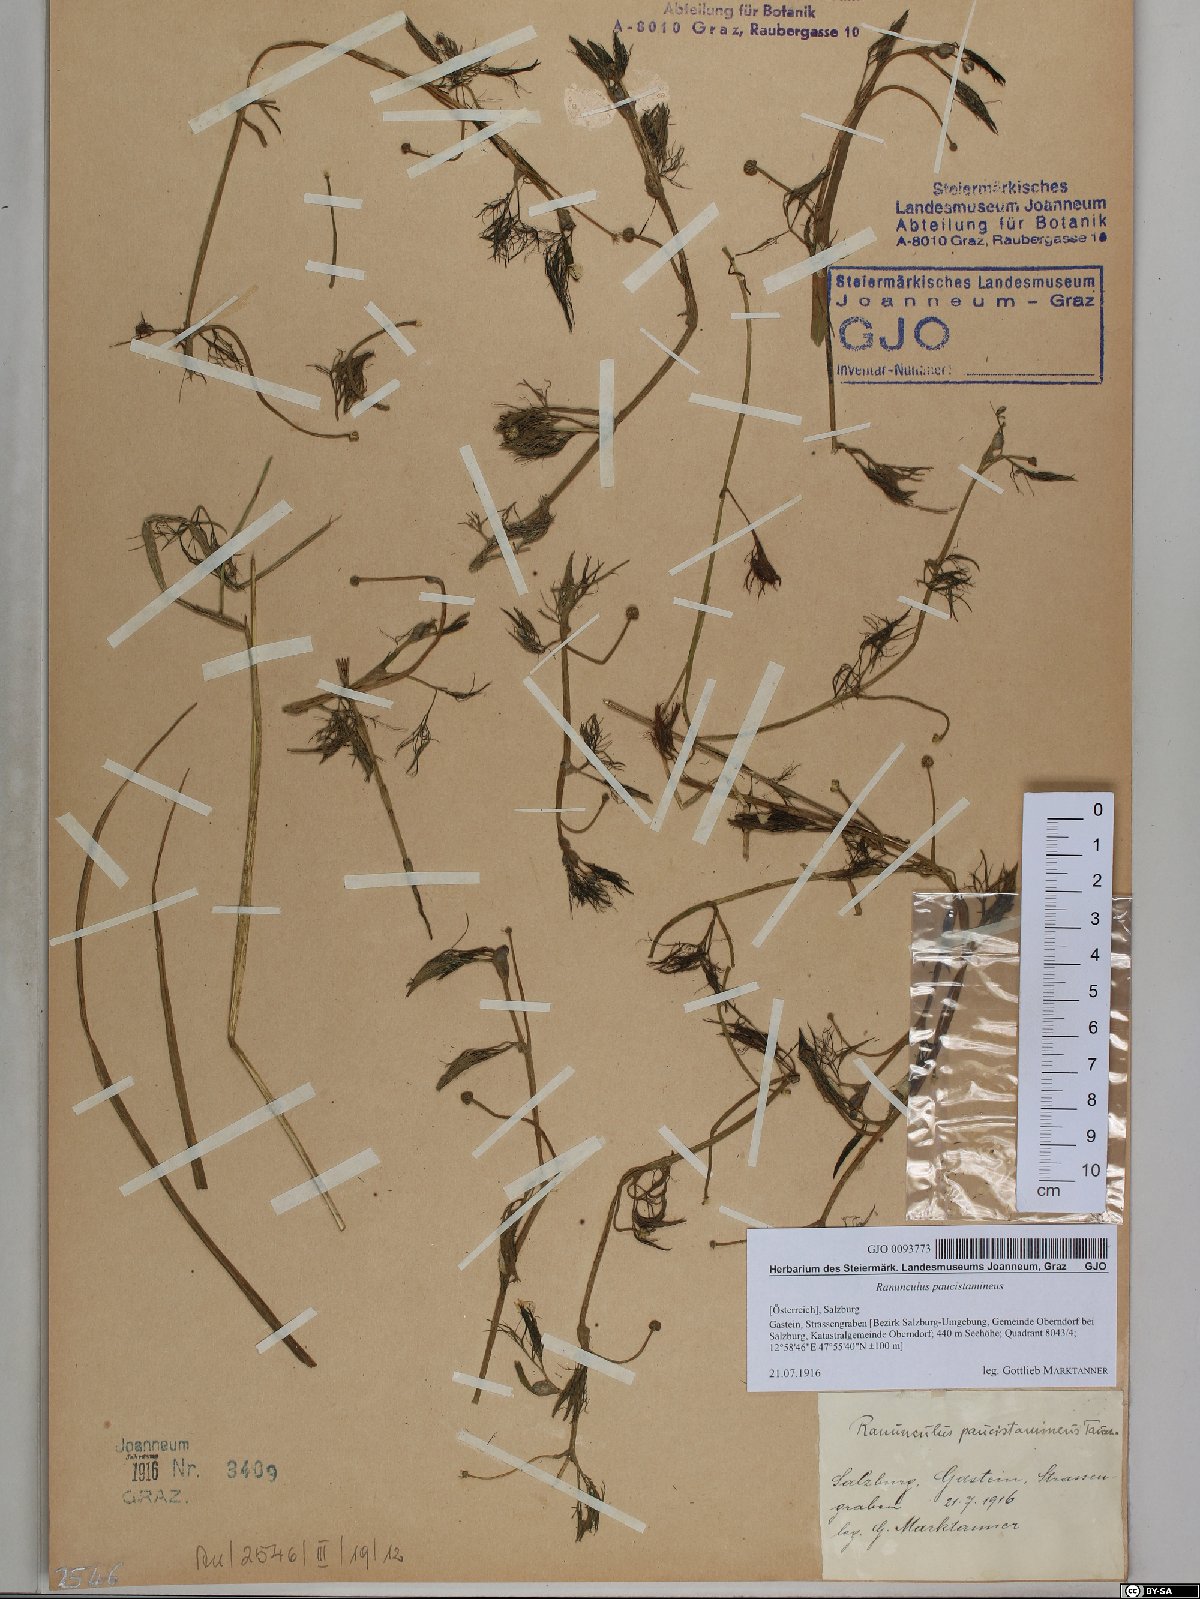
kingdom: Plantae
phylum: Tracheophyta
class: Magnoliopsida
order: Ranunculales
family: Ranunculaceae
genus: Ranunculus
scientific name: Ranunculus
